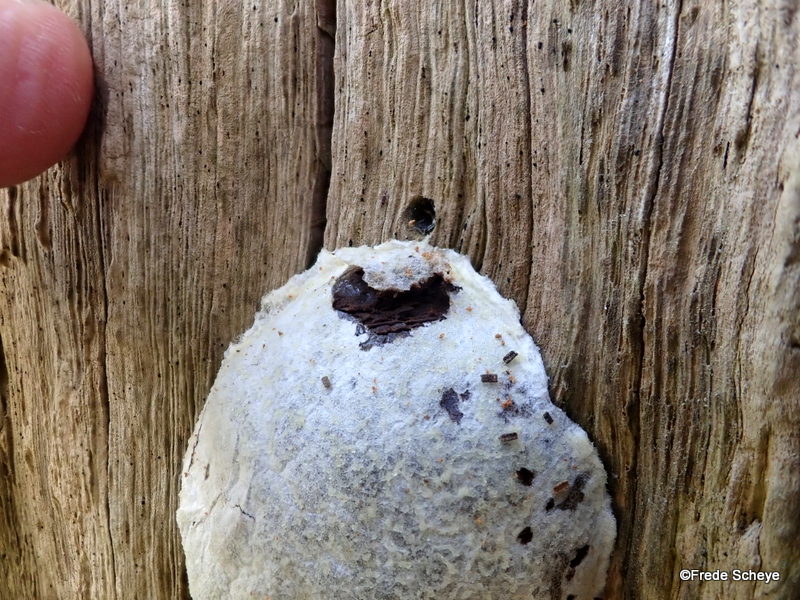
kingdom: Protozoa
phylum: Mycetozoa
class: Myxomycetes
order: Cribrariales
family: Tubiferaceae
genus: Reticularia
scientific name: Reticularia lycoperdon
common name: skinnende støvpude
